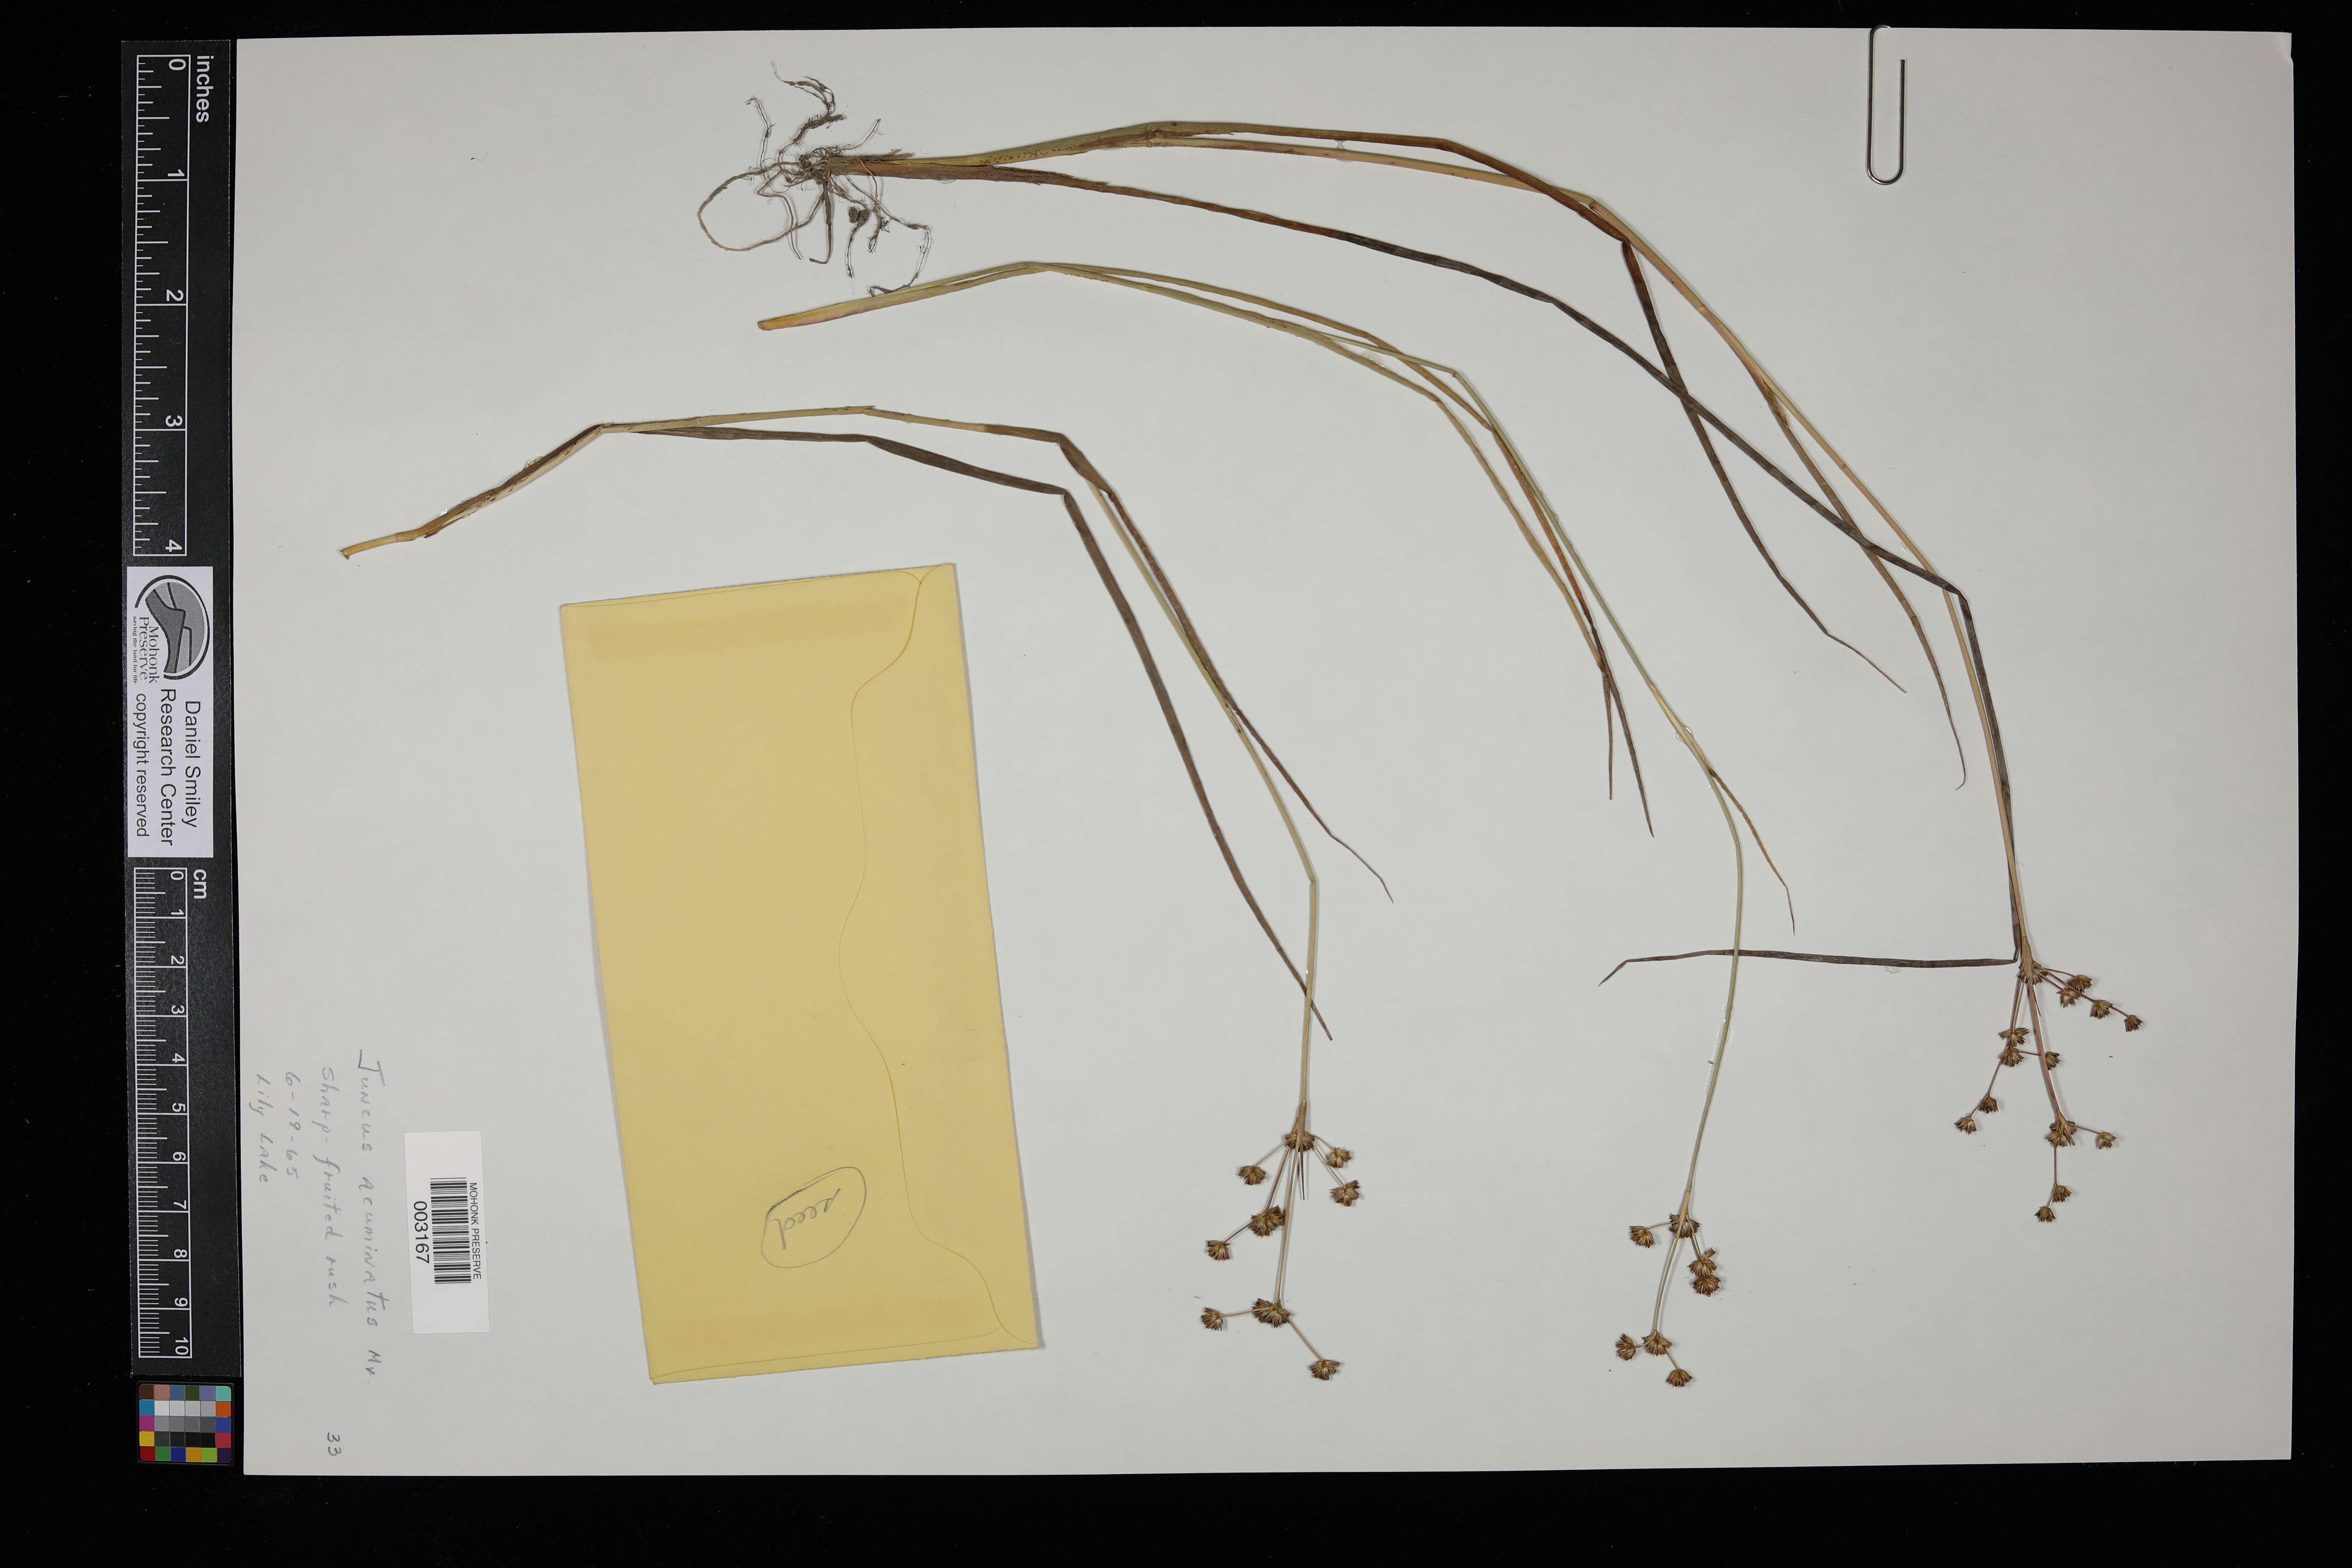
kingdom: Plantae
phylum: Tracheophyta
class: Liliopsida
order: Poales
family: Juncaceae
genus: Juncus
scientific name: Juncus acuminatus
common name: Knotty-leaved rush
